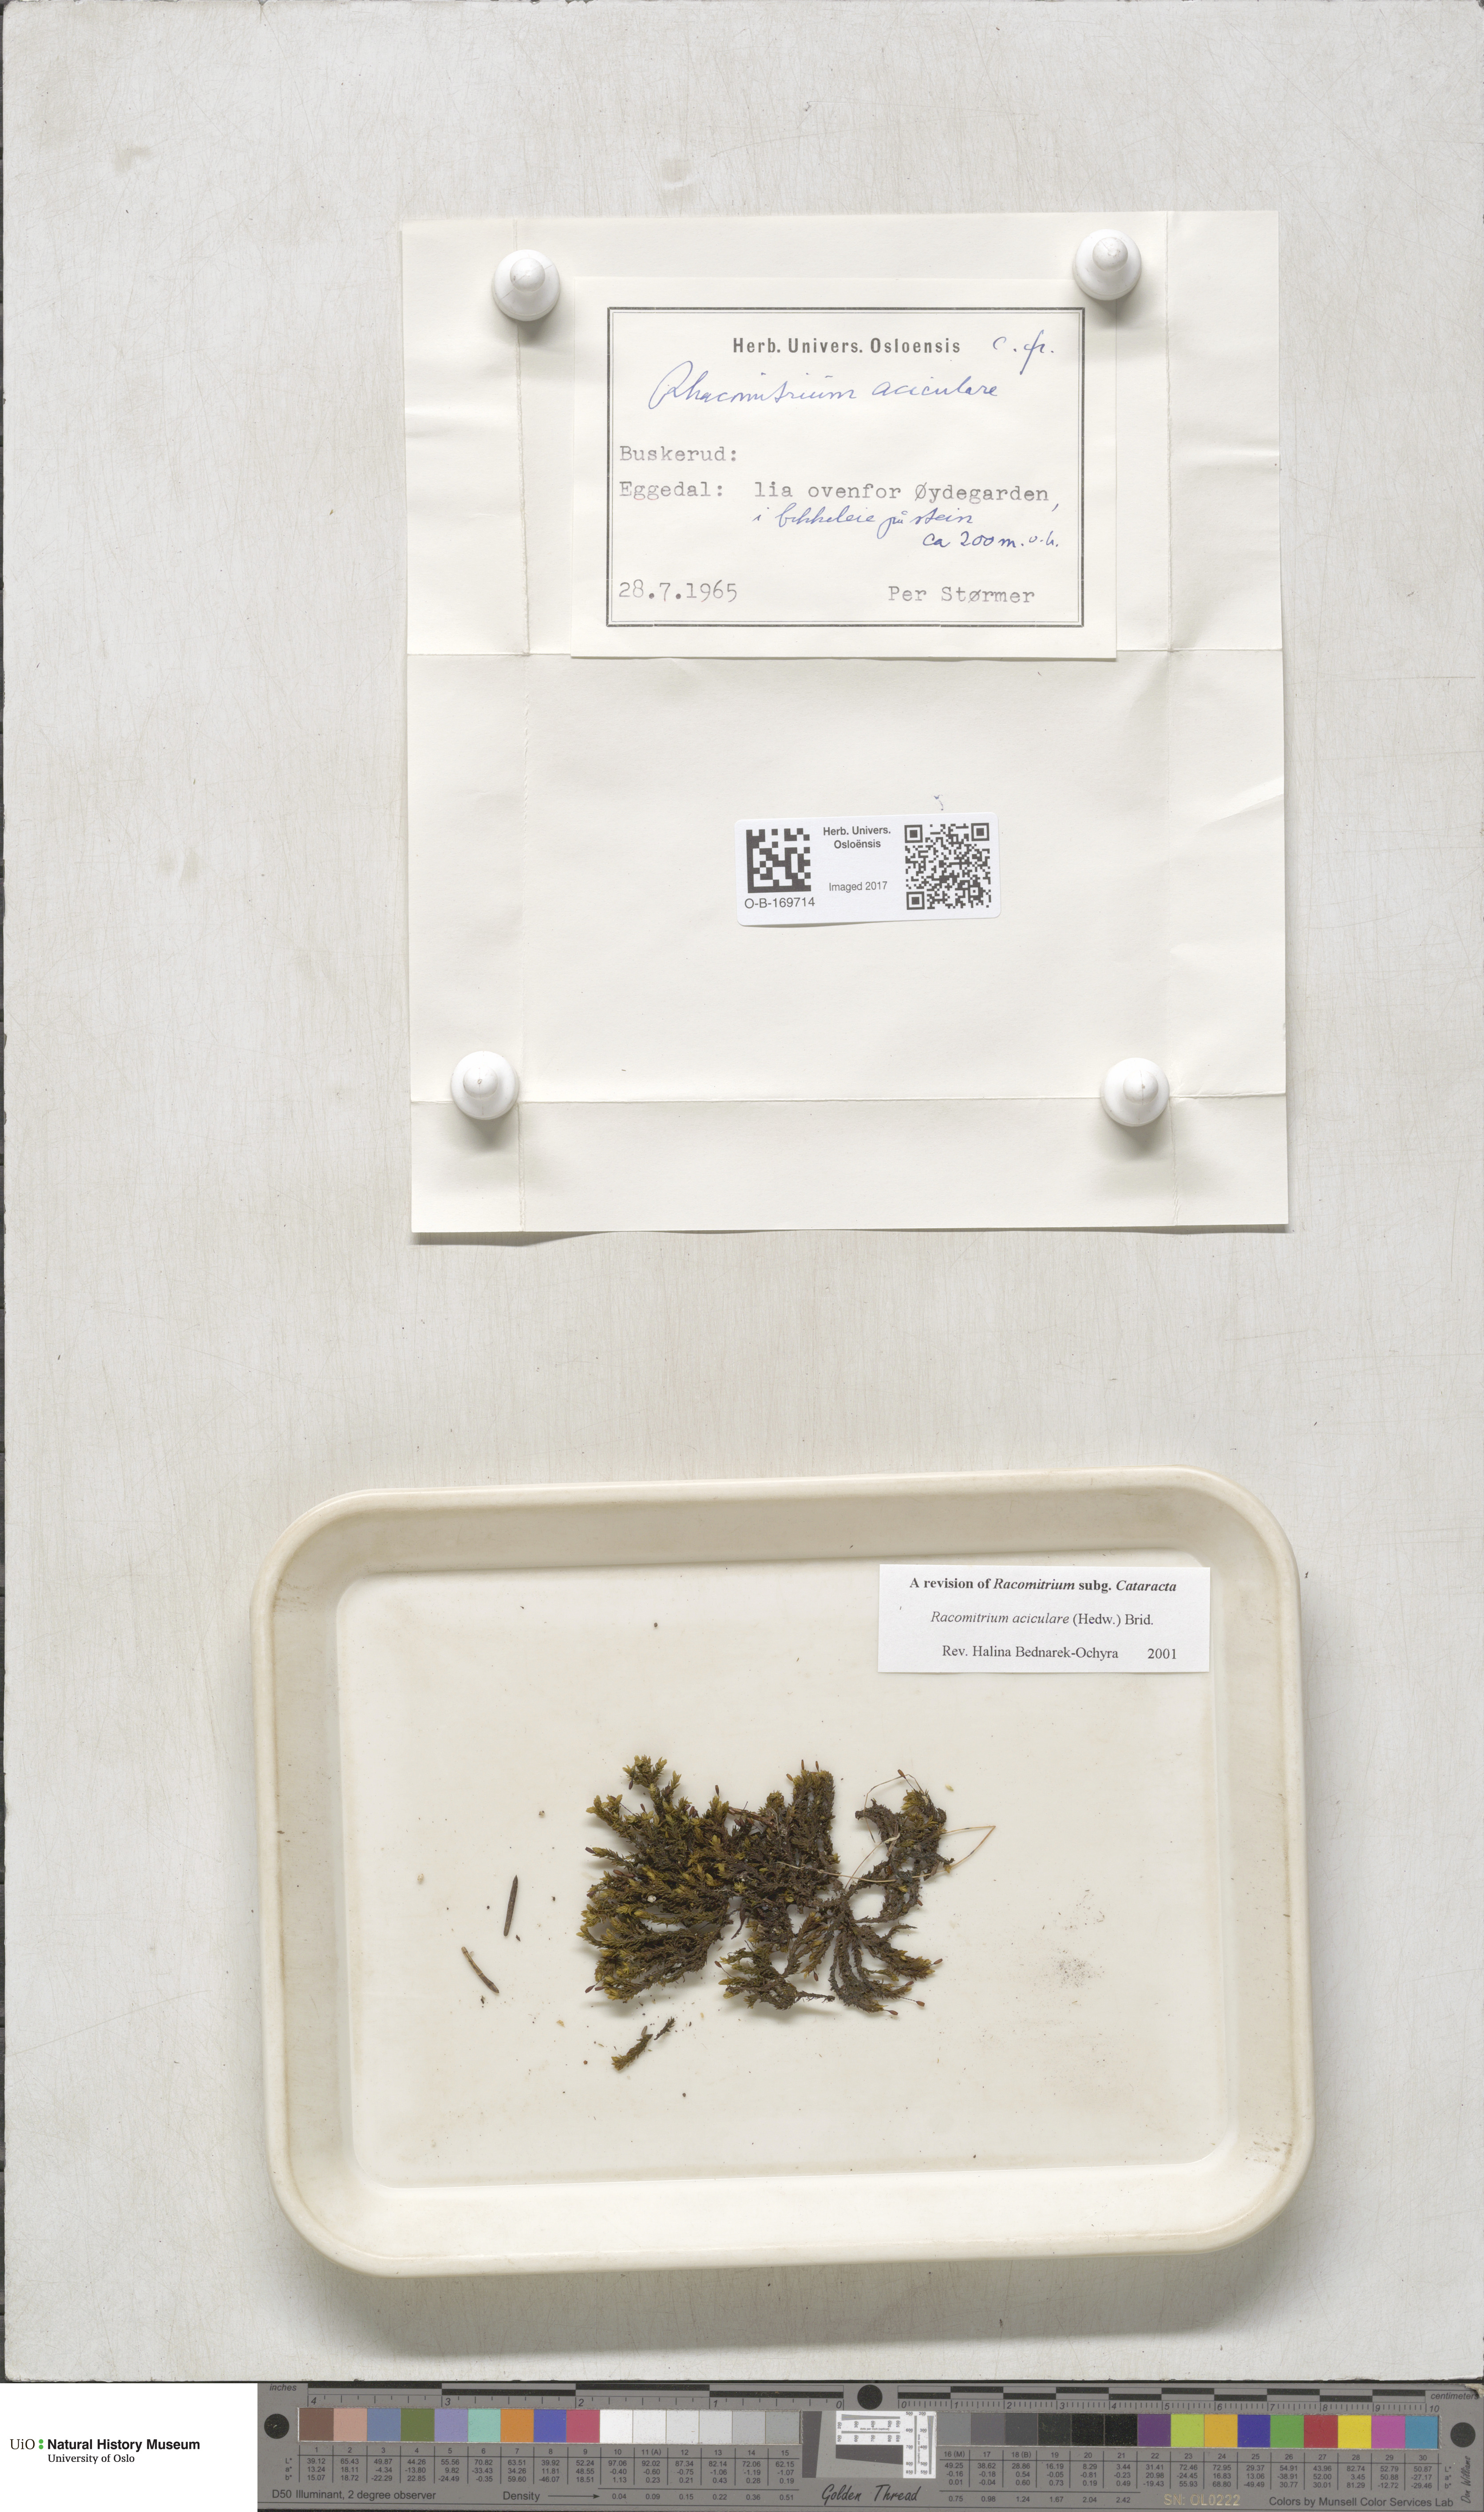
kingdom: Plantae
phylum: Bryophyta
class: Bryopsida
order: Grimmiales
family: Grimmiaceae
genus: Codriophorus
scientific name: Codriophorus acicularis
